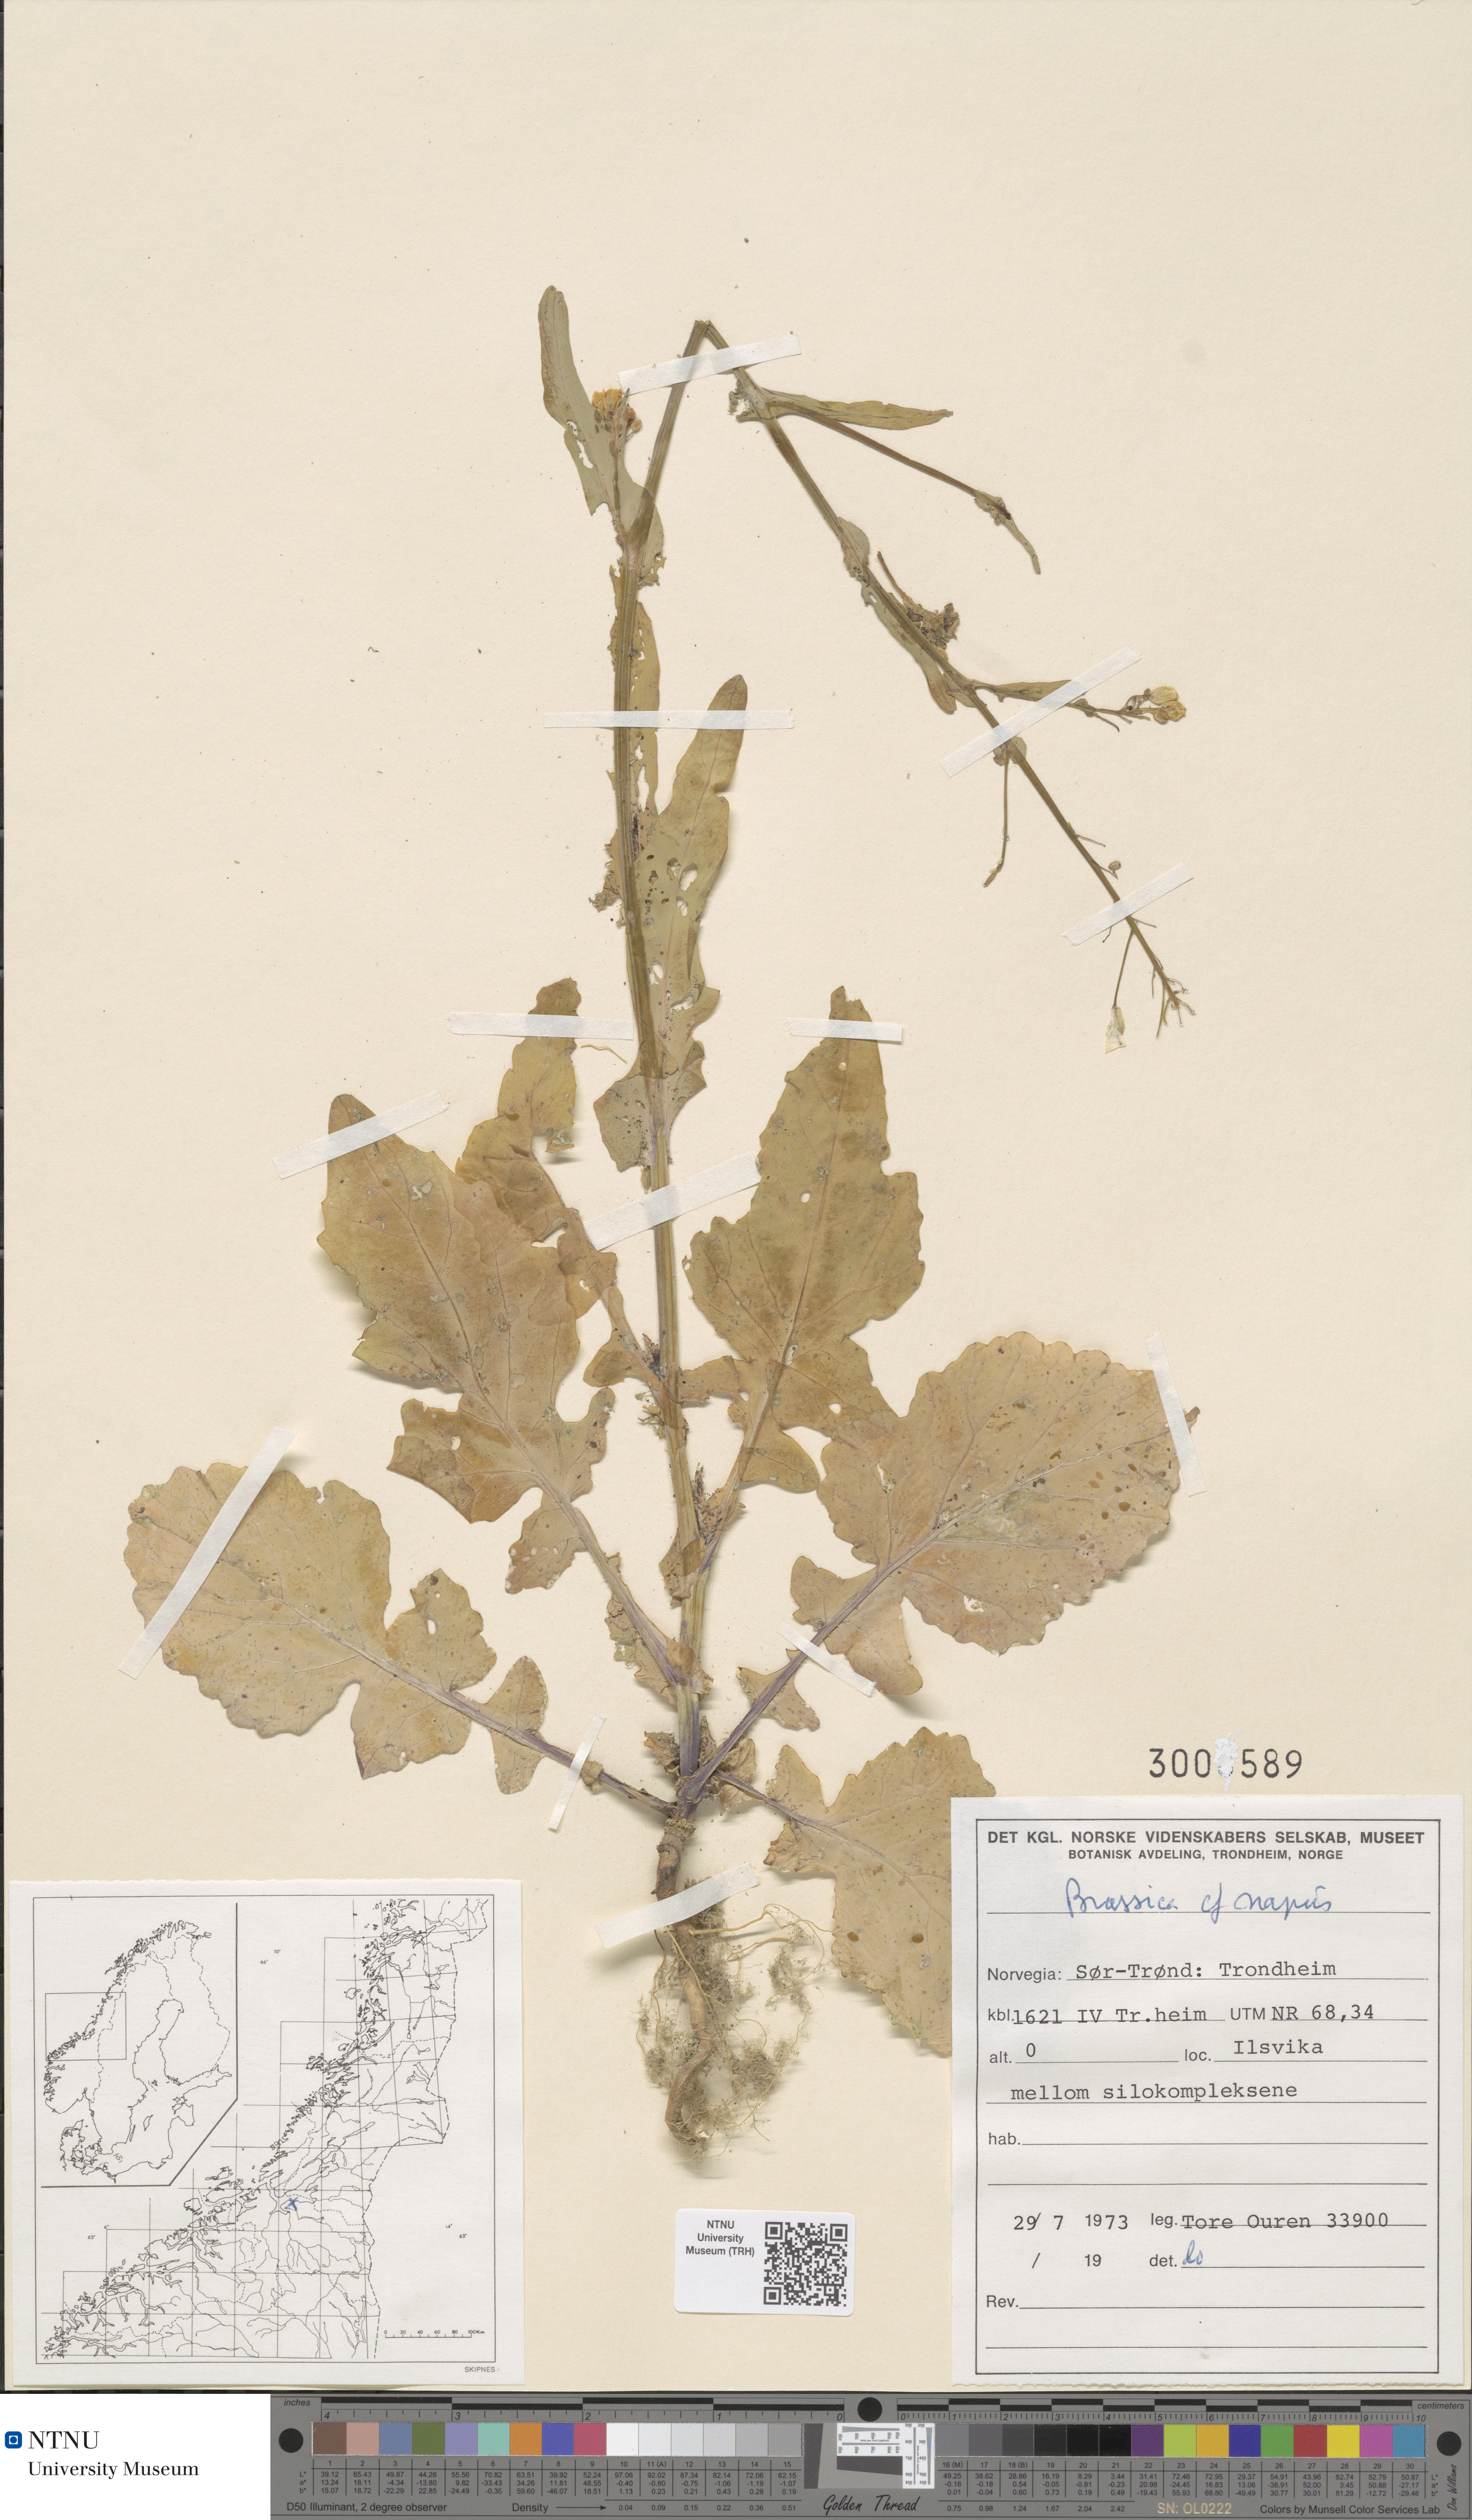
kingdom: Plantae
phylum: Tracheophyta
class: Magnoliopsida
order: Brassicales
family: Brassicaceae
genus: Brassica
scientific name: Brassica napus
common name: Rape
